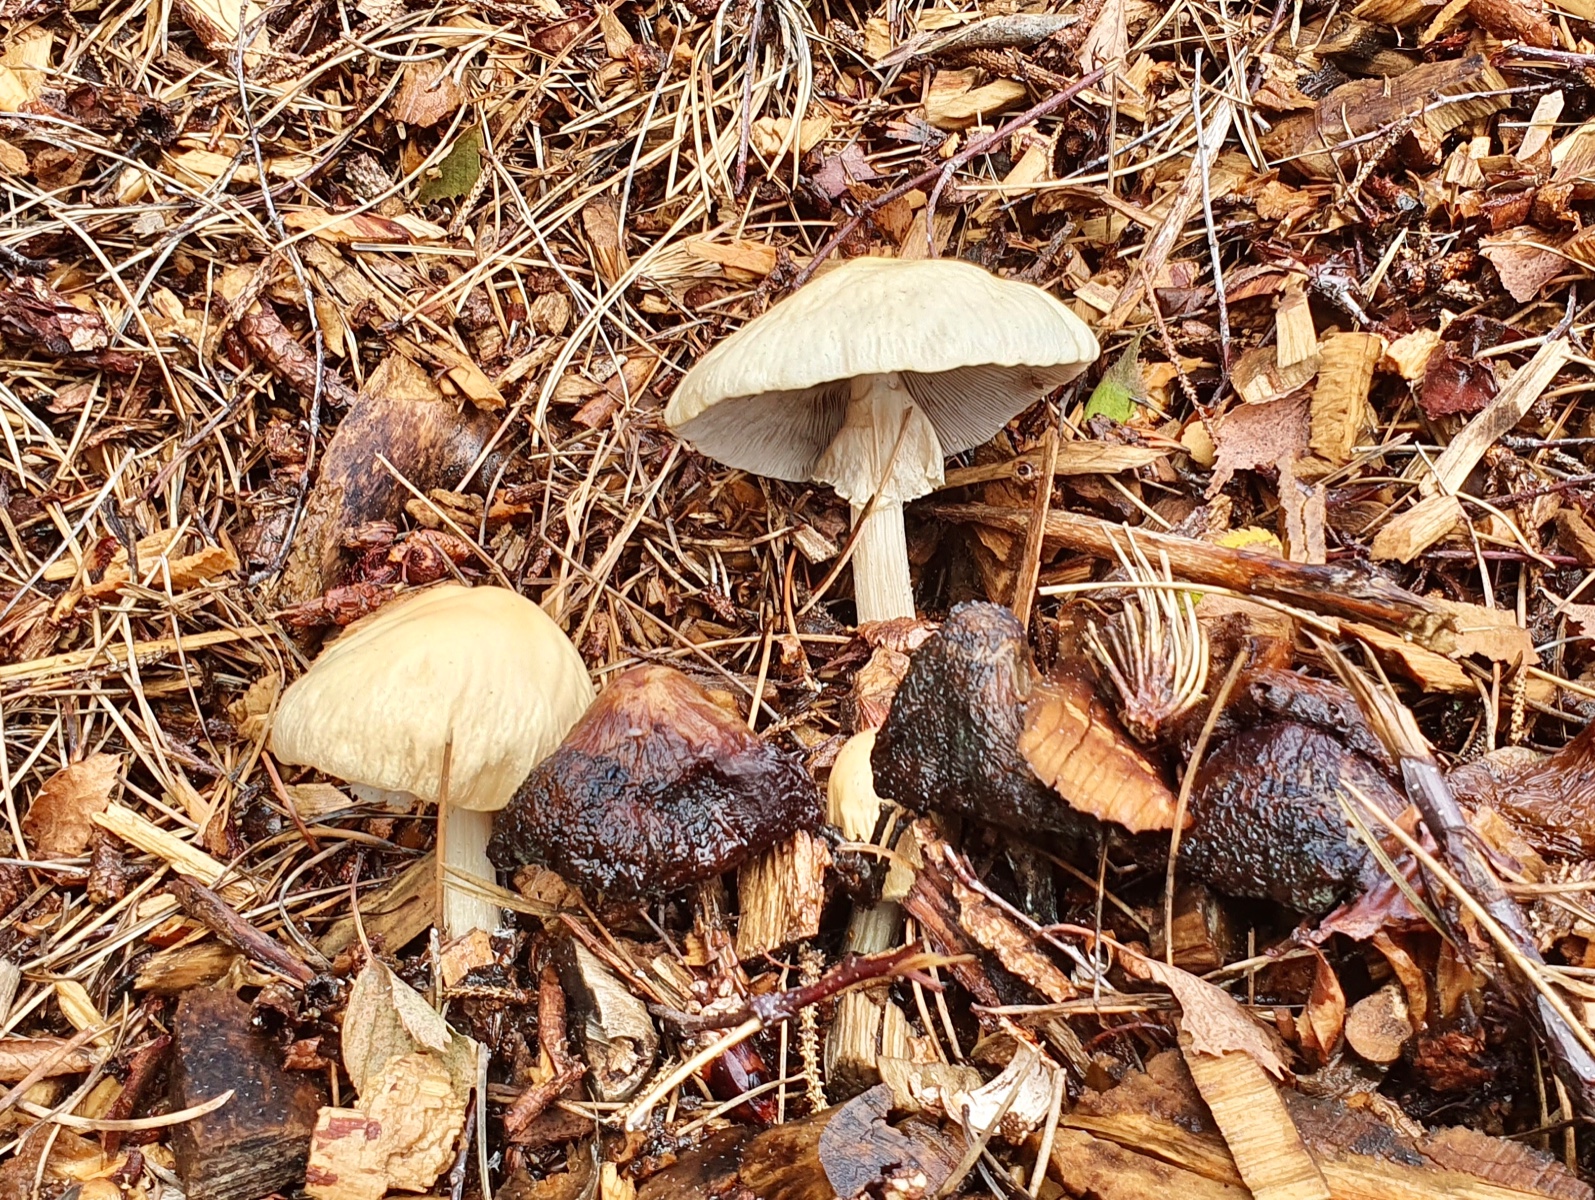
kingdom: Fungi
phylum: Basidiomycota
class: Agaricomycetes
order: Agaricales
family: Strophariaceae
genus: Agrocybe
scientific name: Agrocybe rivulosa
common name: året agerhat
